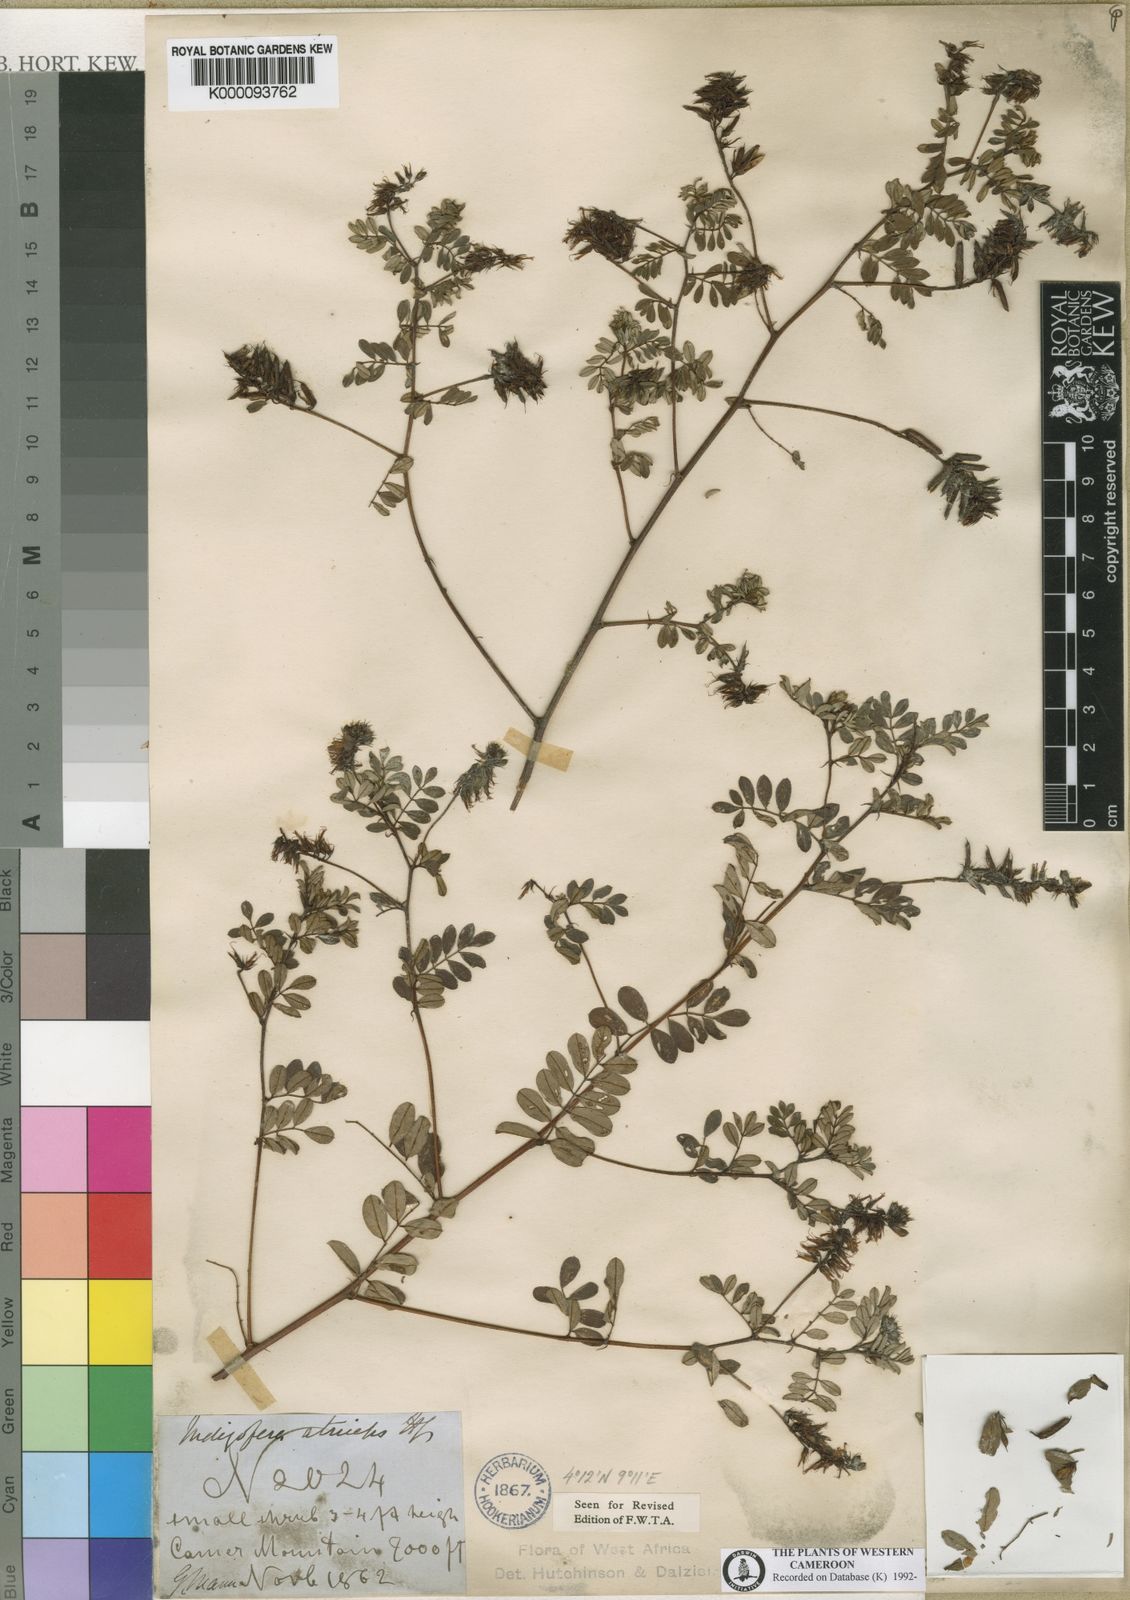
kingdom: Plantae
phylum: Tracheophyta
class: Magnoliopsida
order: Fabales
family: Fabaceae
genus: Indigofera
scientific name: Indigofera atriceps
